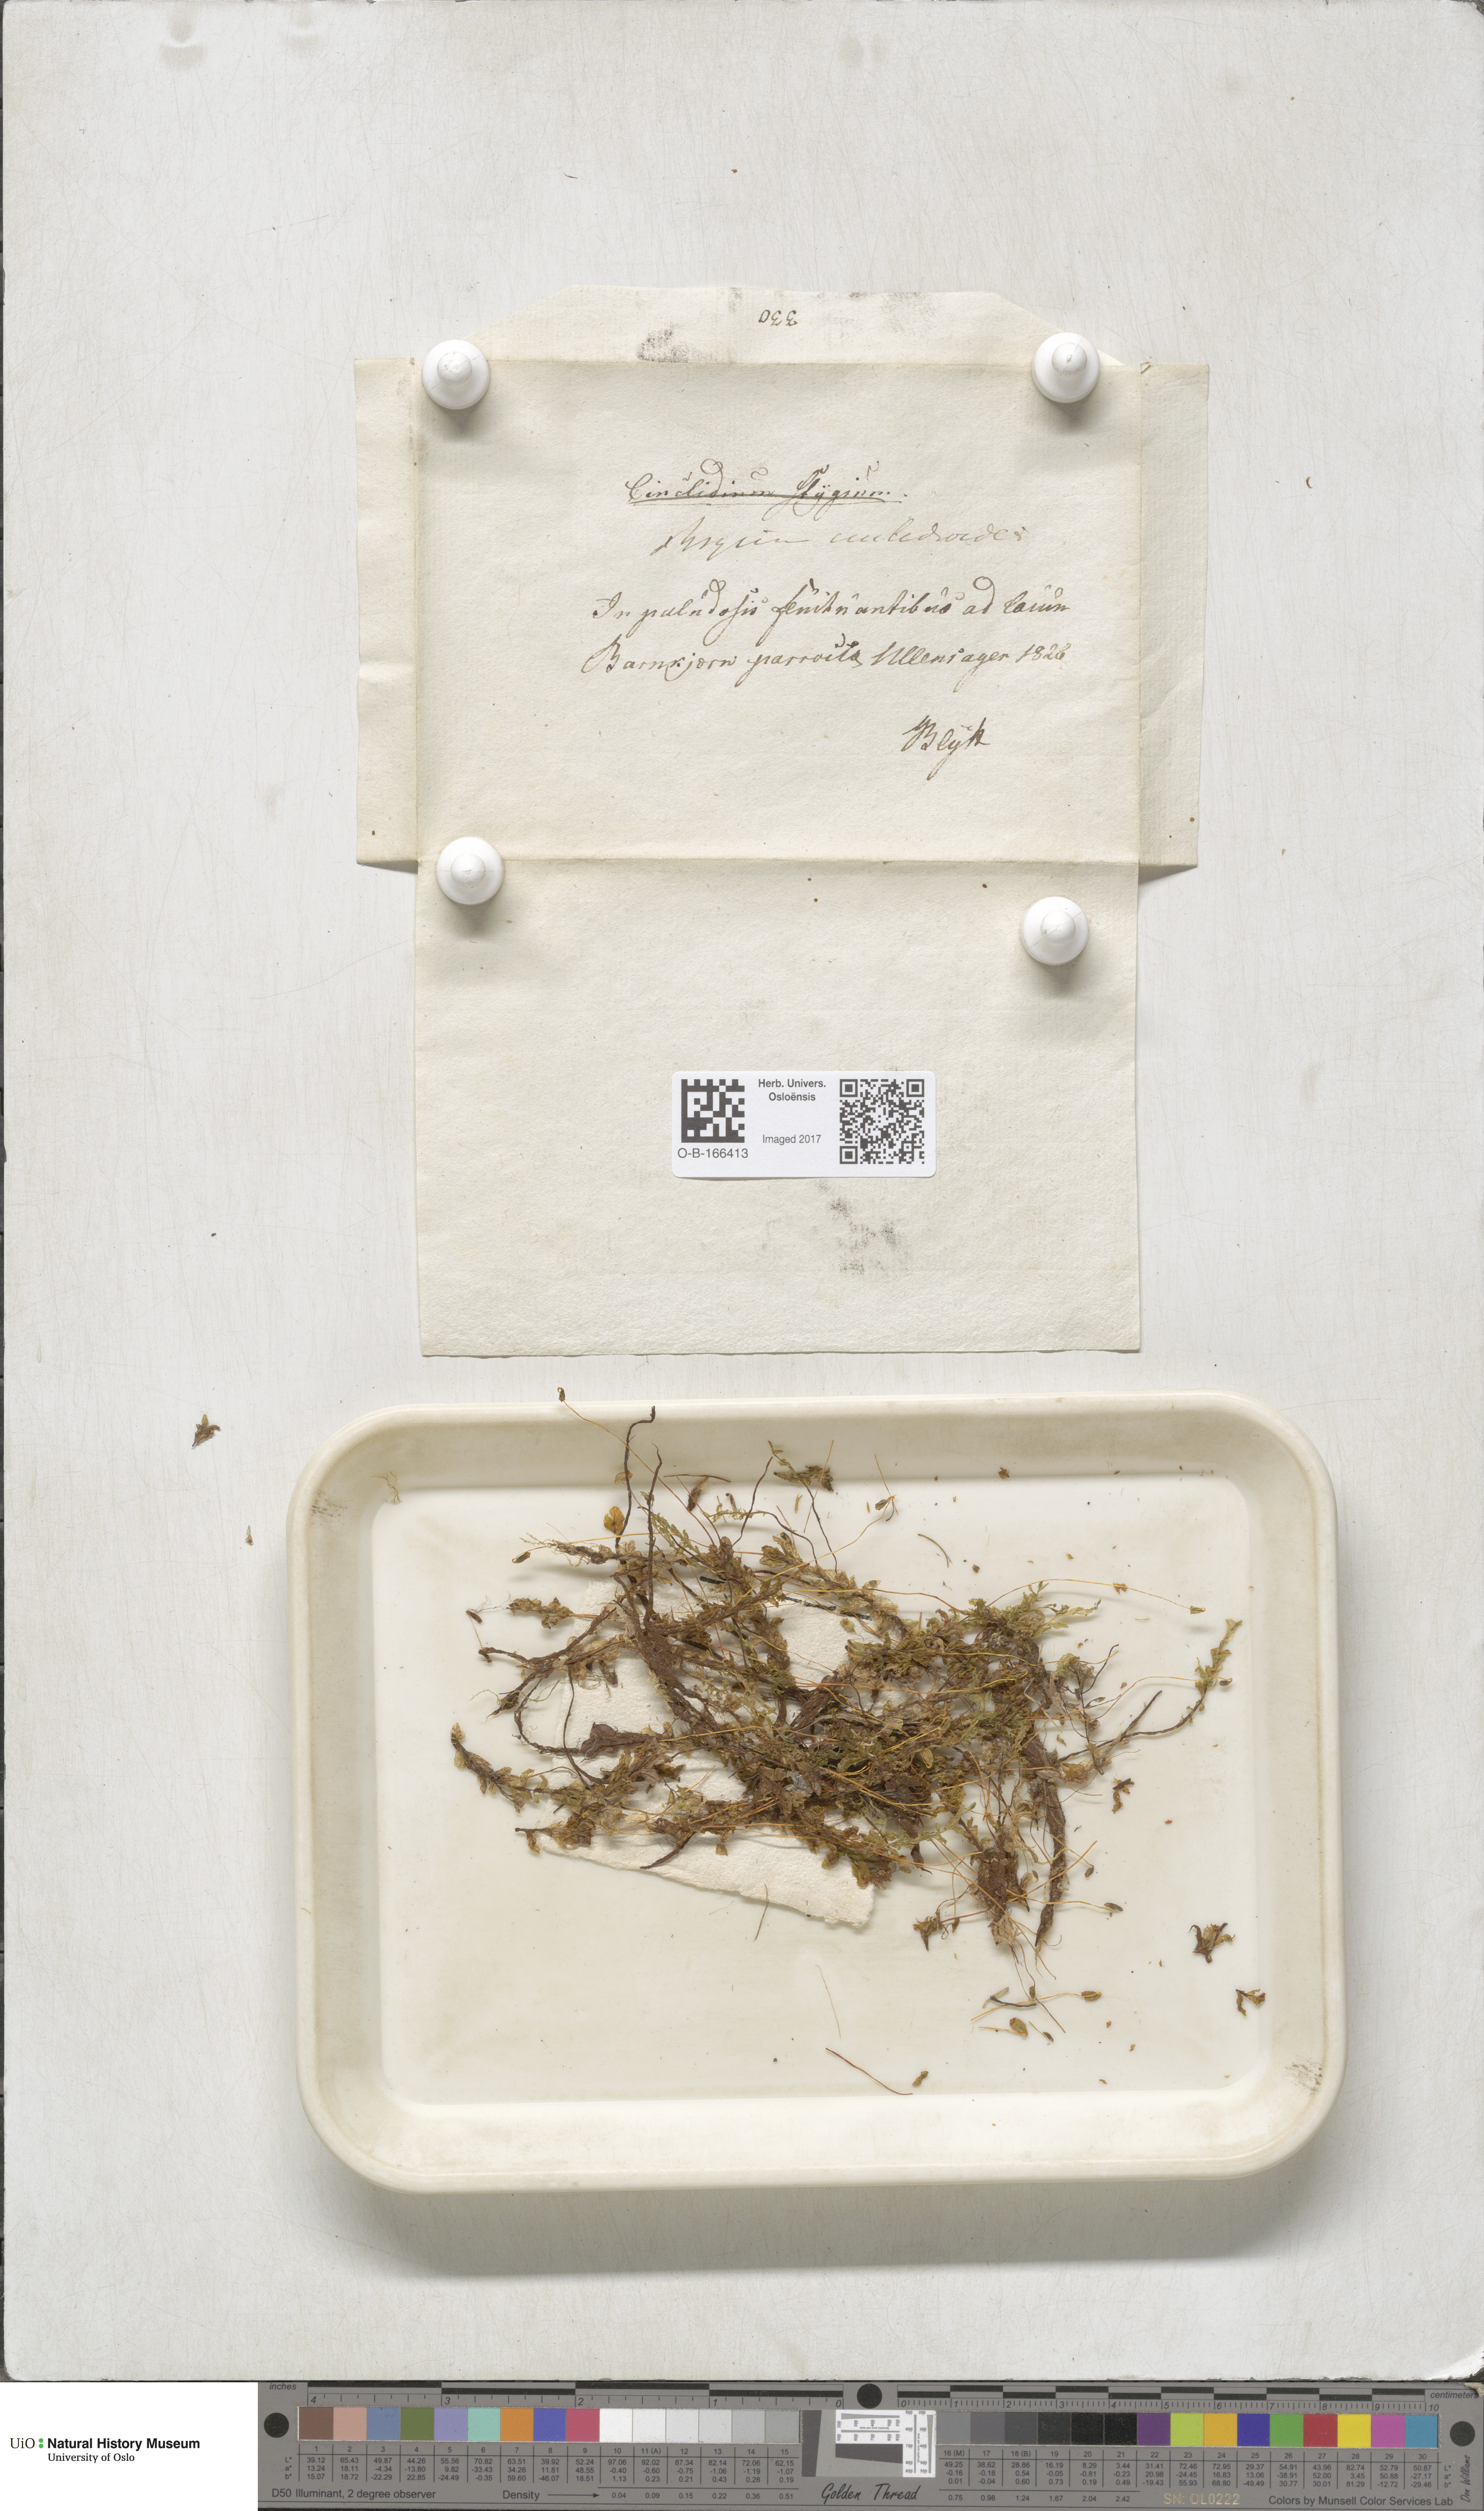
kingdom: Plantae
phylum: Bryophyta
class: Bryopsida
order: Bryales
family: Mniaceae
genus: Pseudobryum
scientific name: Pseudobryum cinclidioides
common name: River thyme moss
